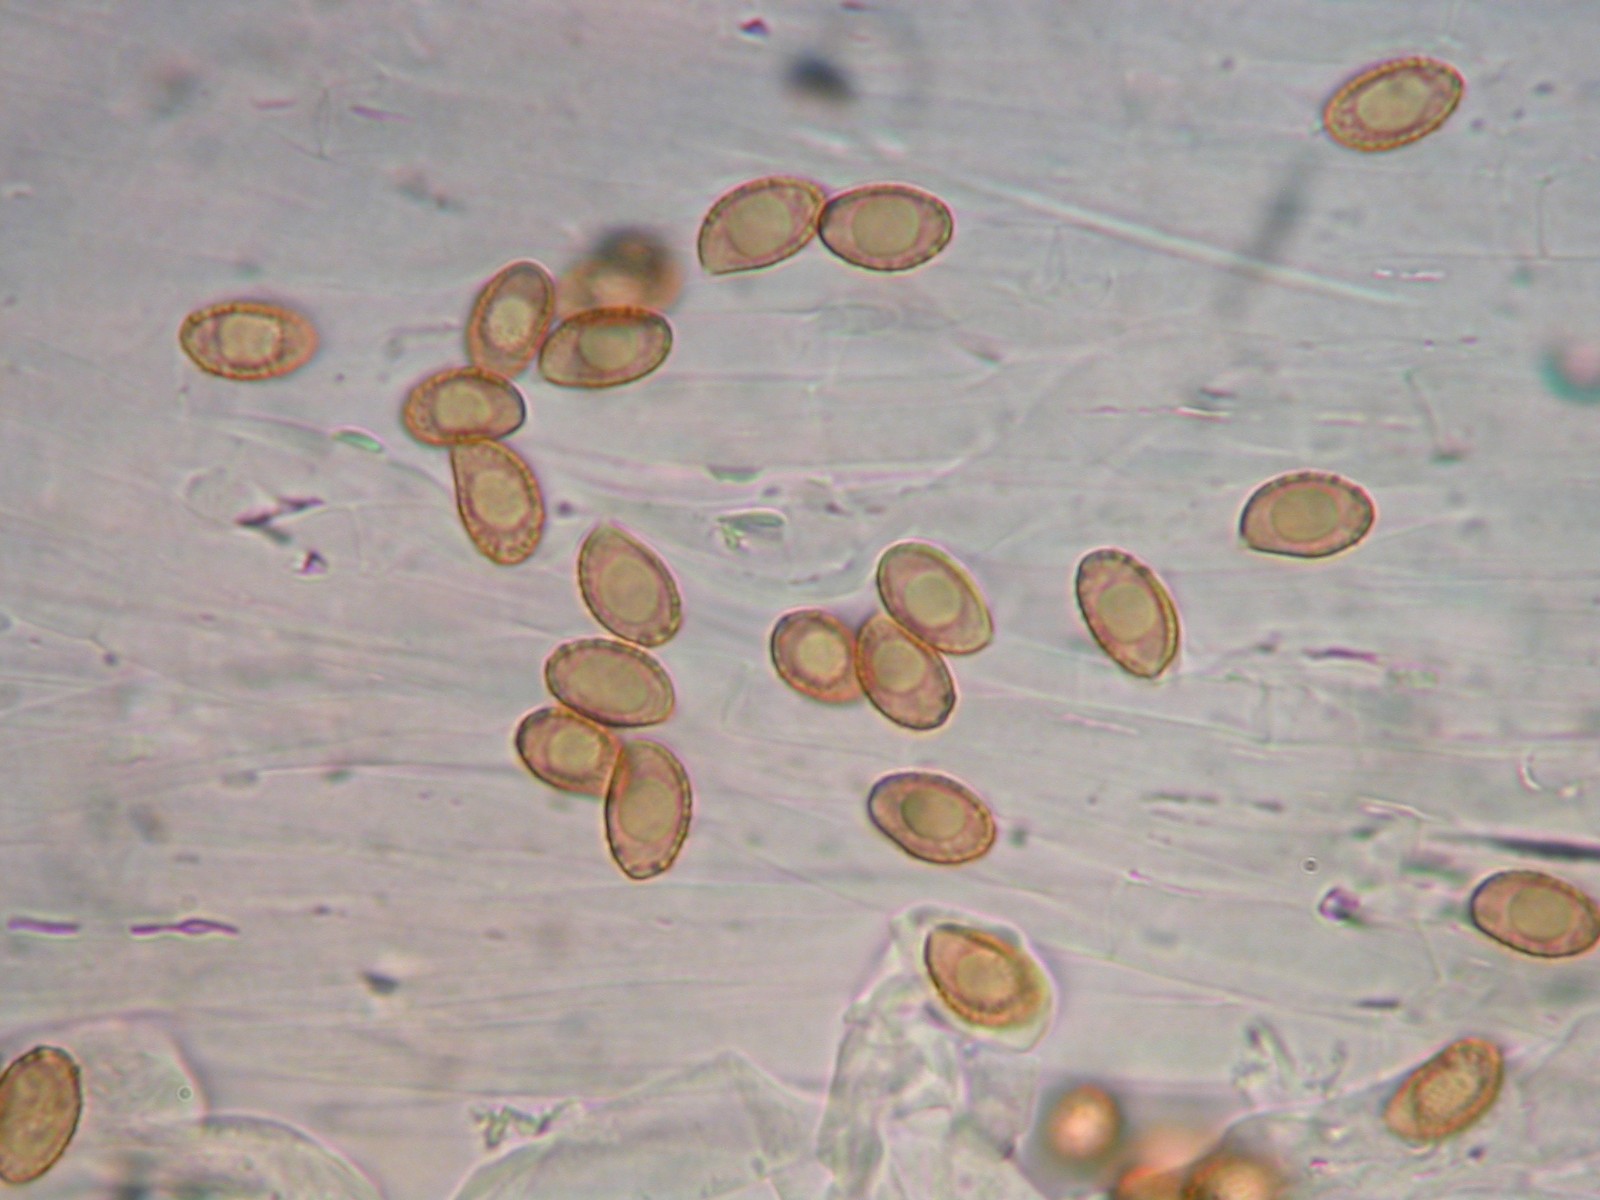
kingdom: Fungi
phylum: Basidiomycota
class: Agaricomycetes
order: Agaricales
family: Cortinariaceae
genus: Cortinarius
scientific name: Cortinarius glaphurus
